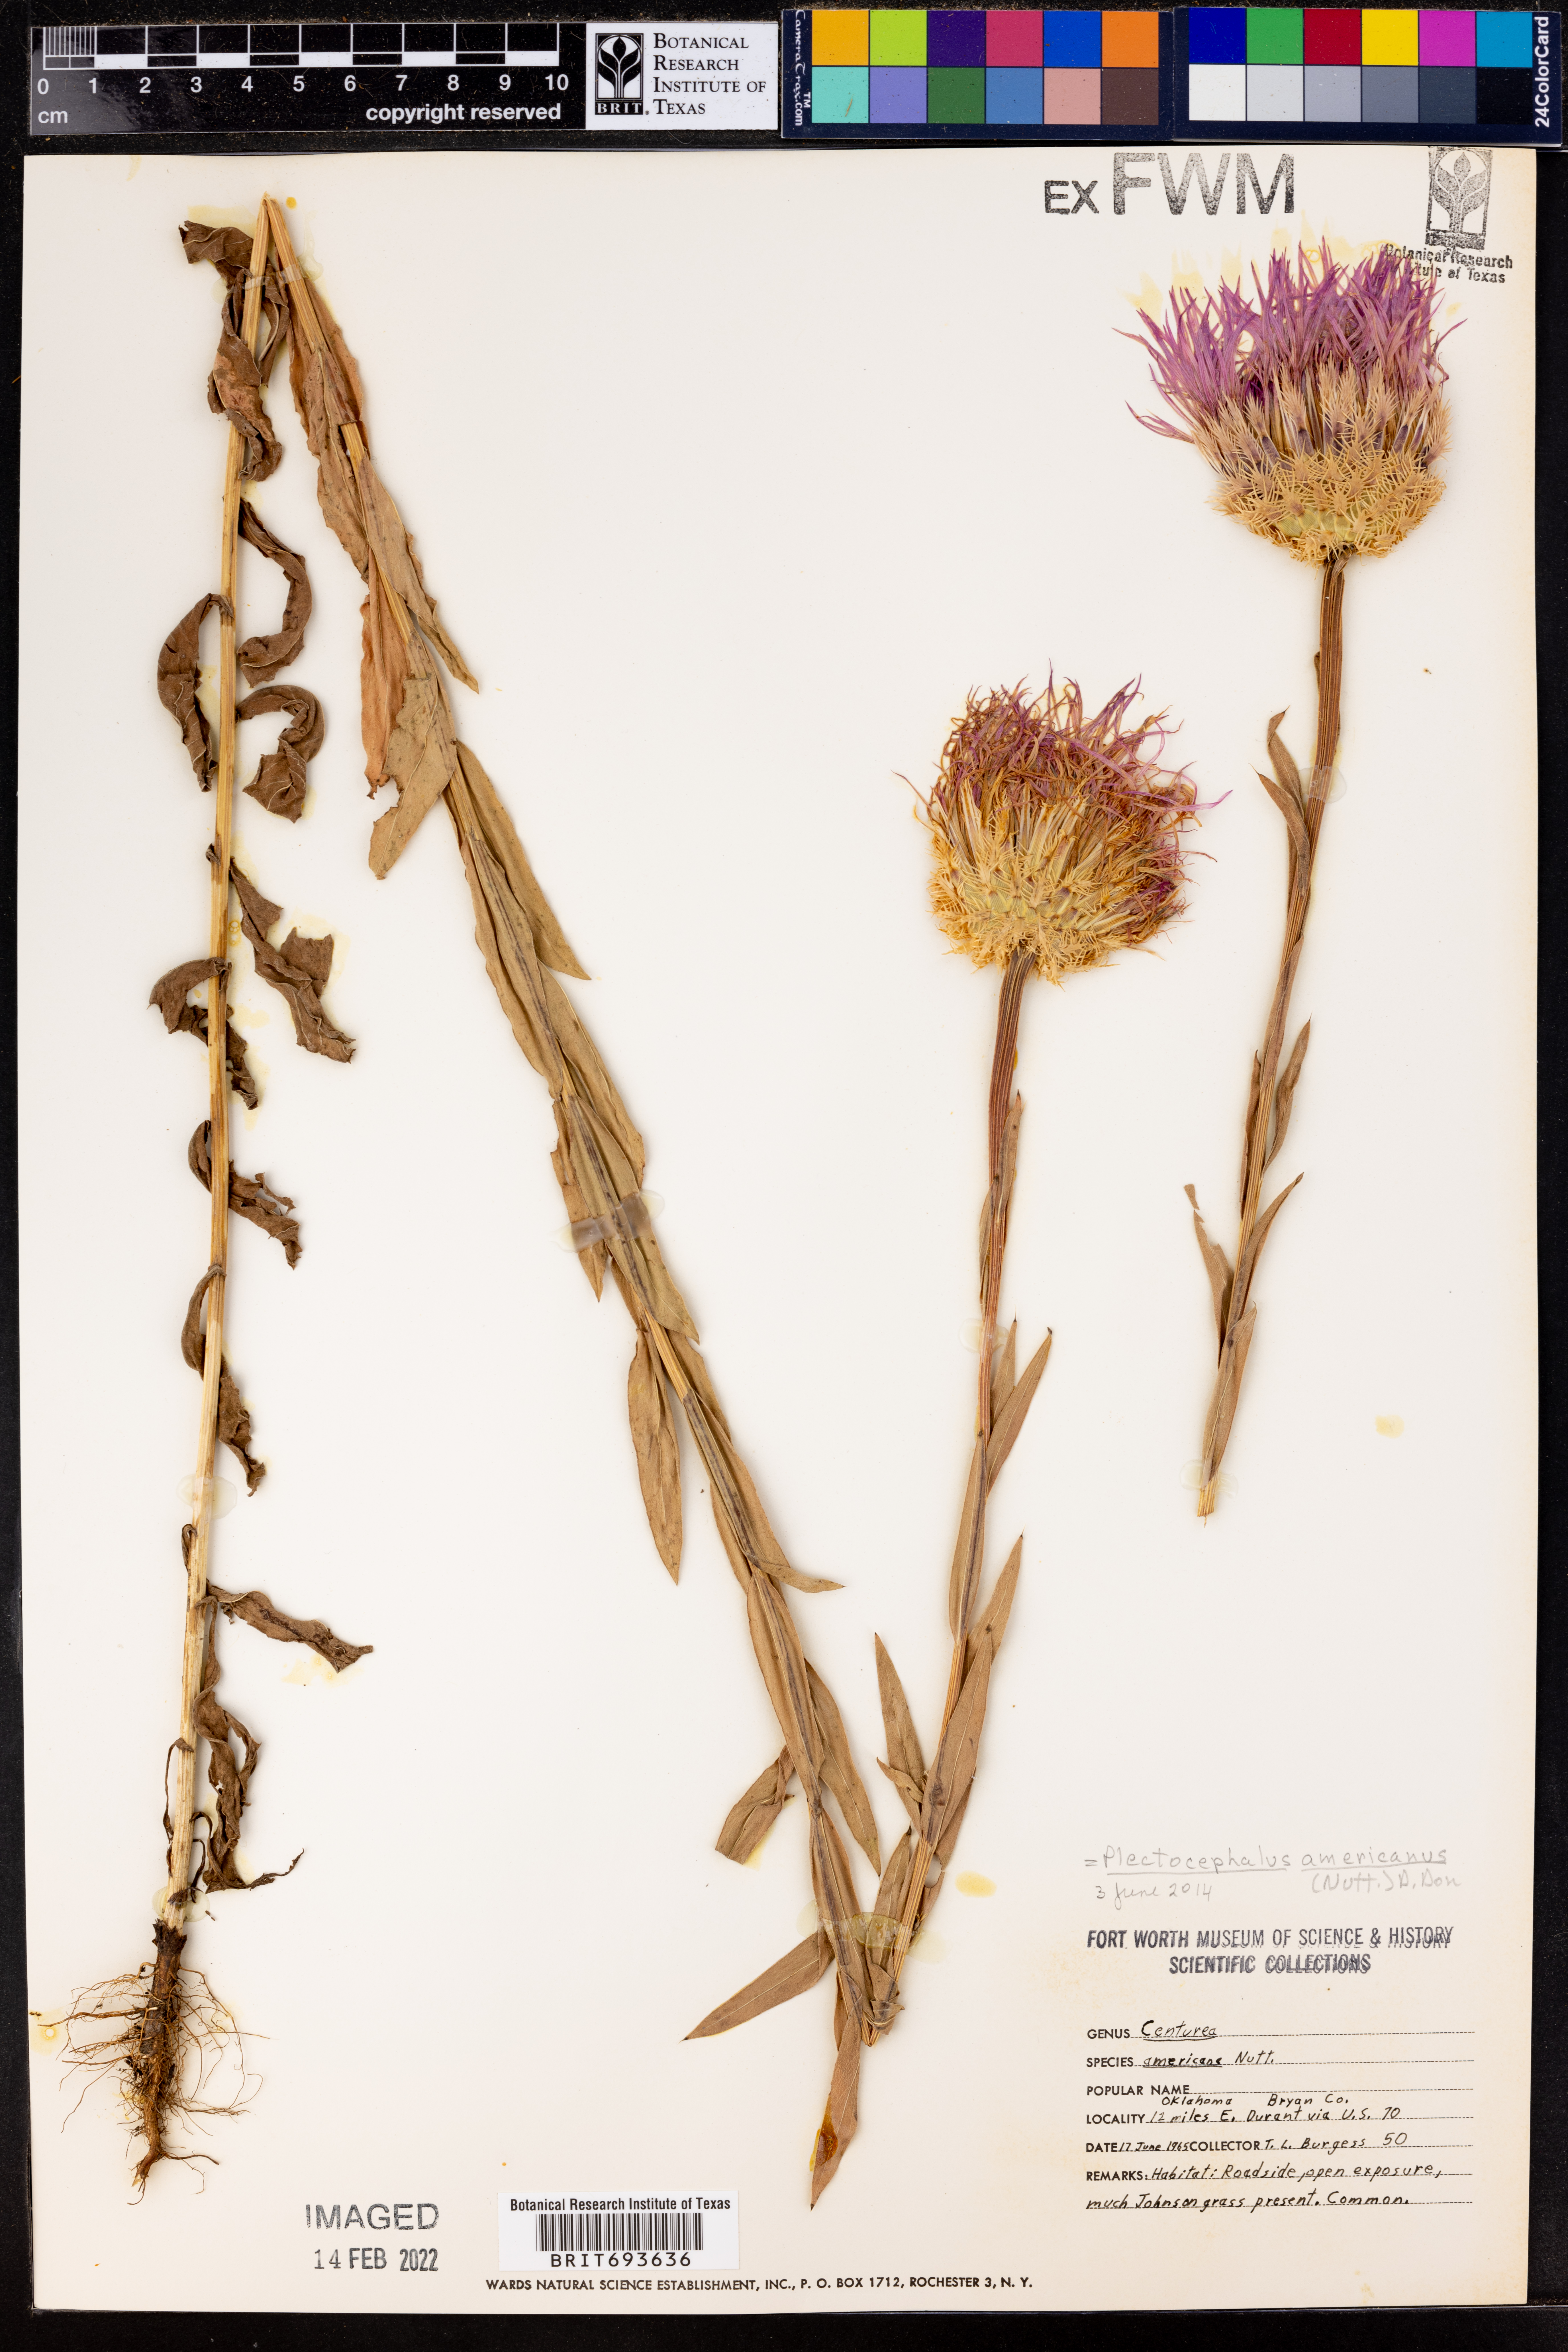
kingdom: Plantae
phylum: Tracheophyta
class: Magnoliopsida
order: Asterales
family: Asteraceae
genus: Plectocephalus
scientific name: Plectocephalus americanus
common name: American basket-flower
